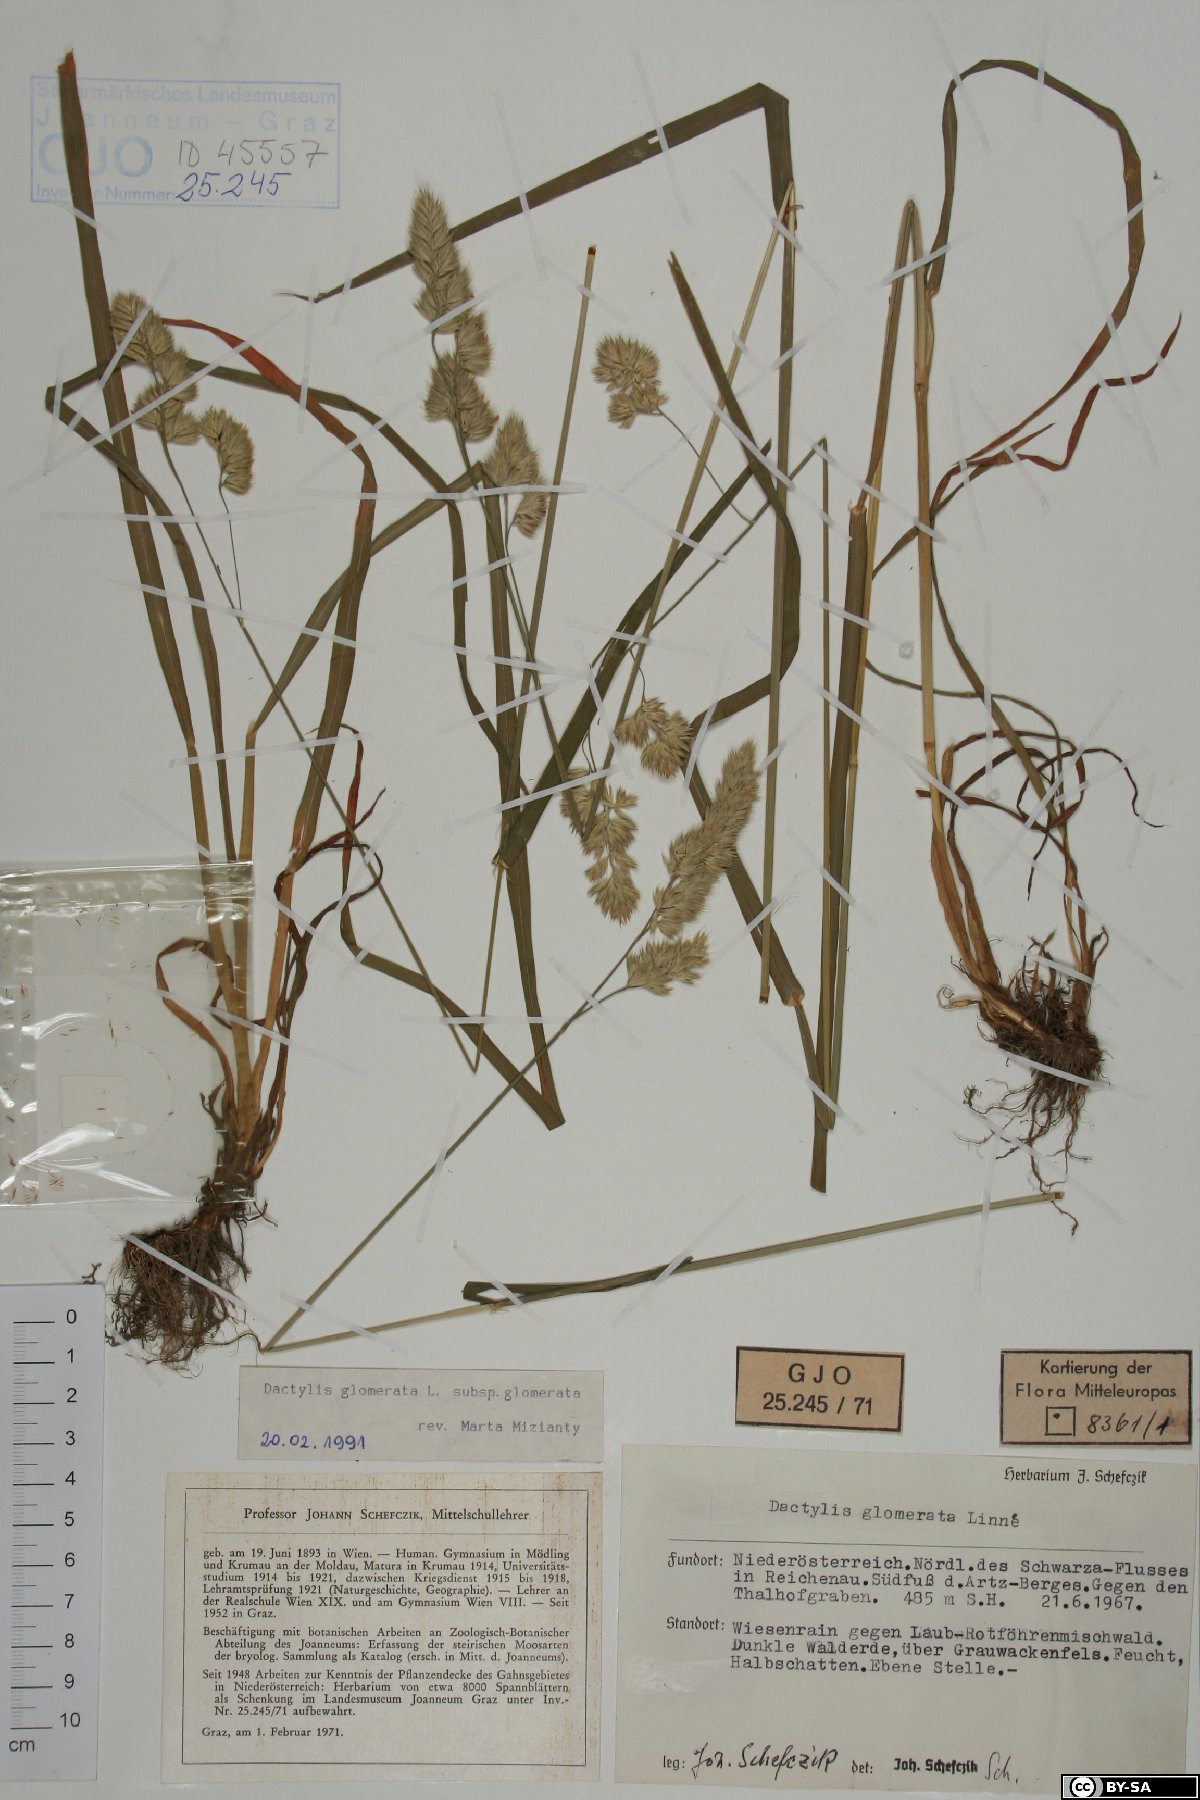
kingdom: Plantae
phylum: Tracheophyta
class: Liliopsida
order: Poales
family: Poaceae
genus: Dactylis
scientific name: Dactylis glomerata
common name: Orchardgrass
